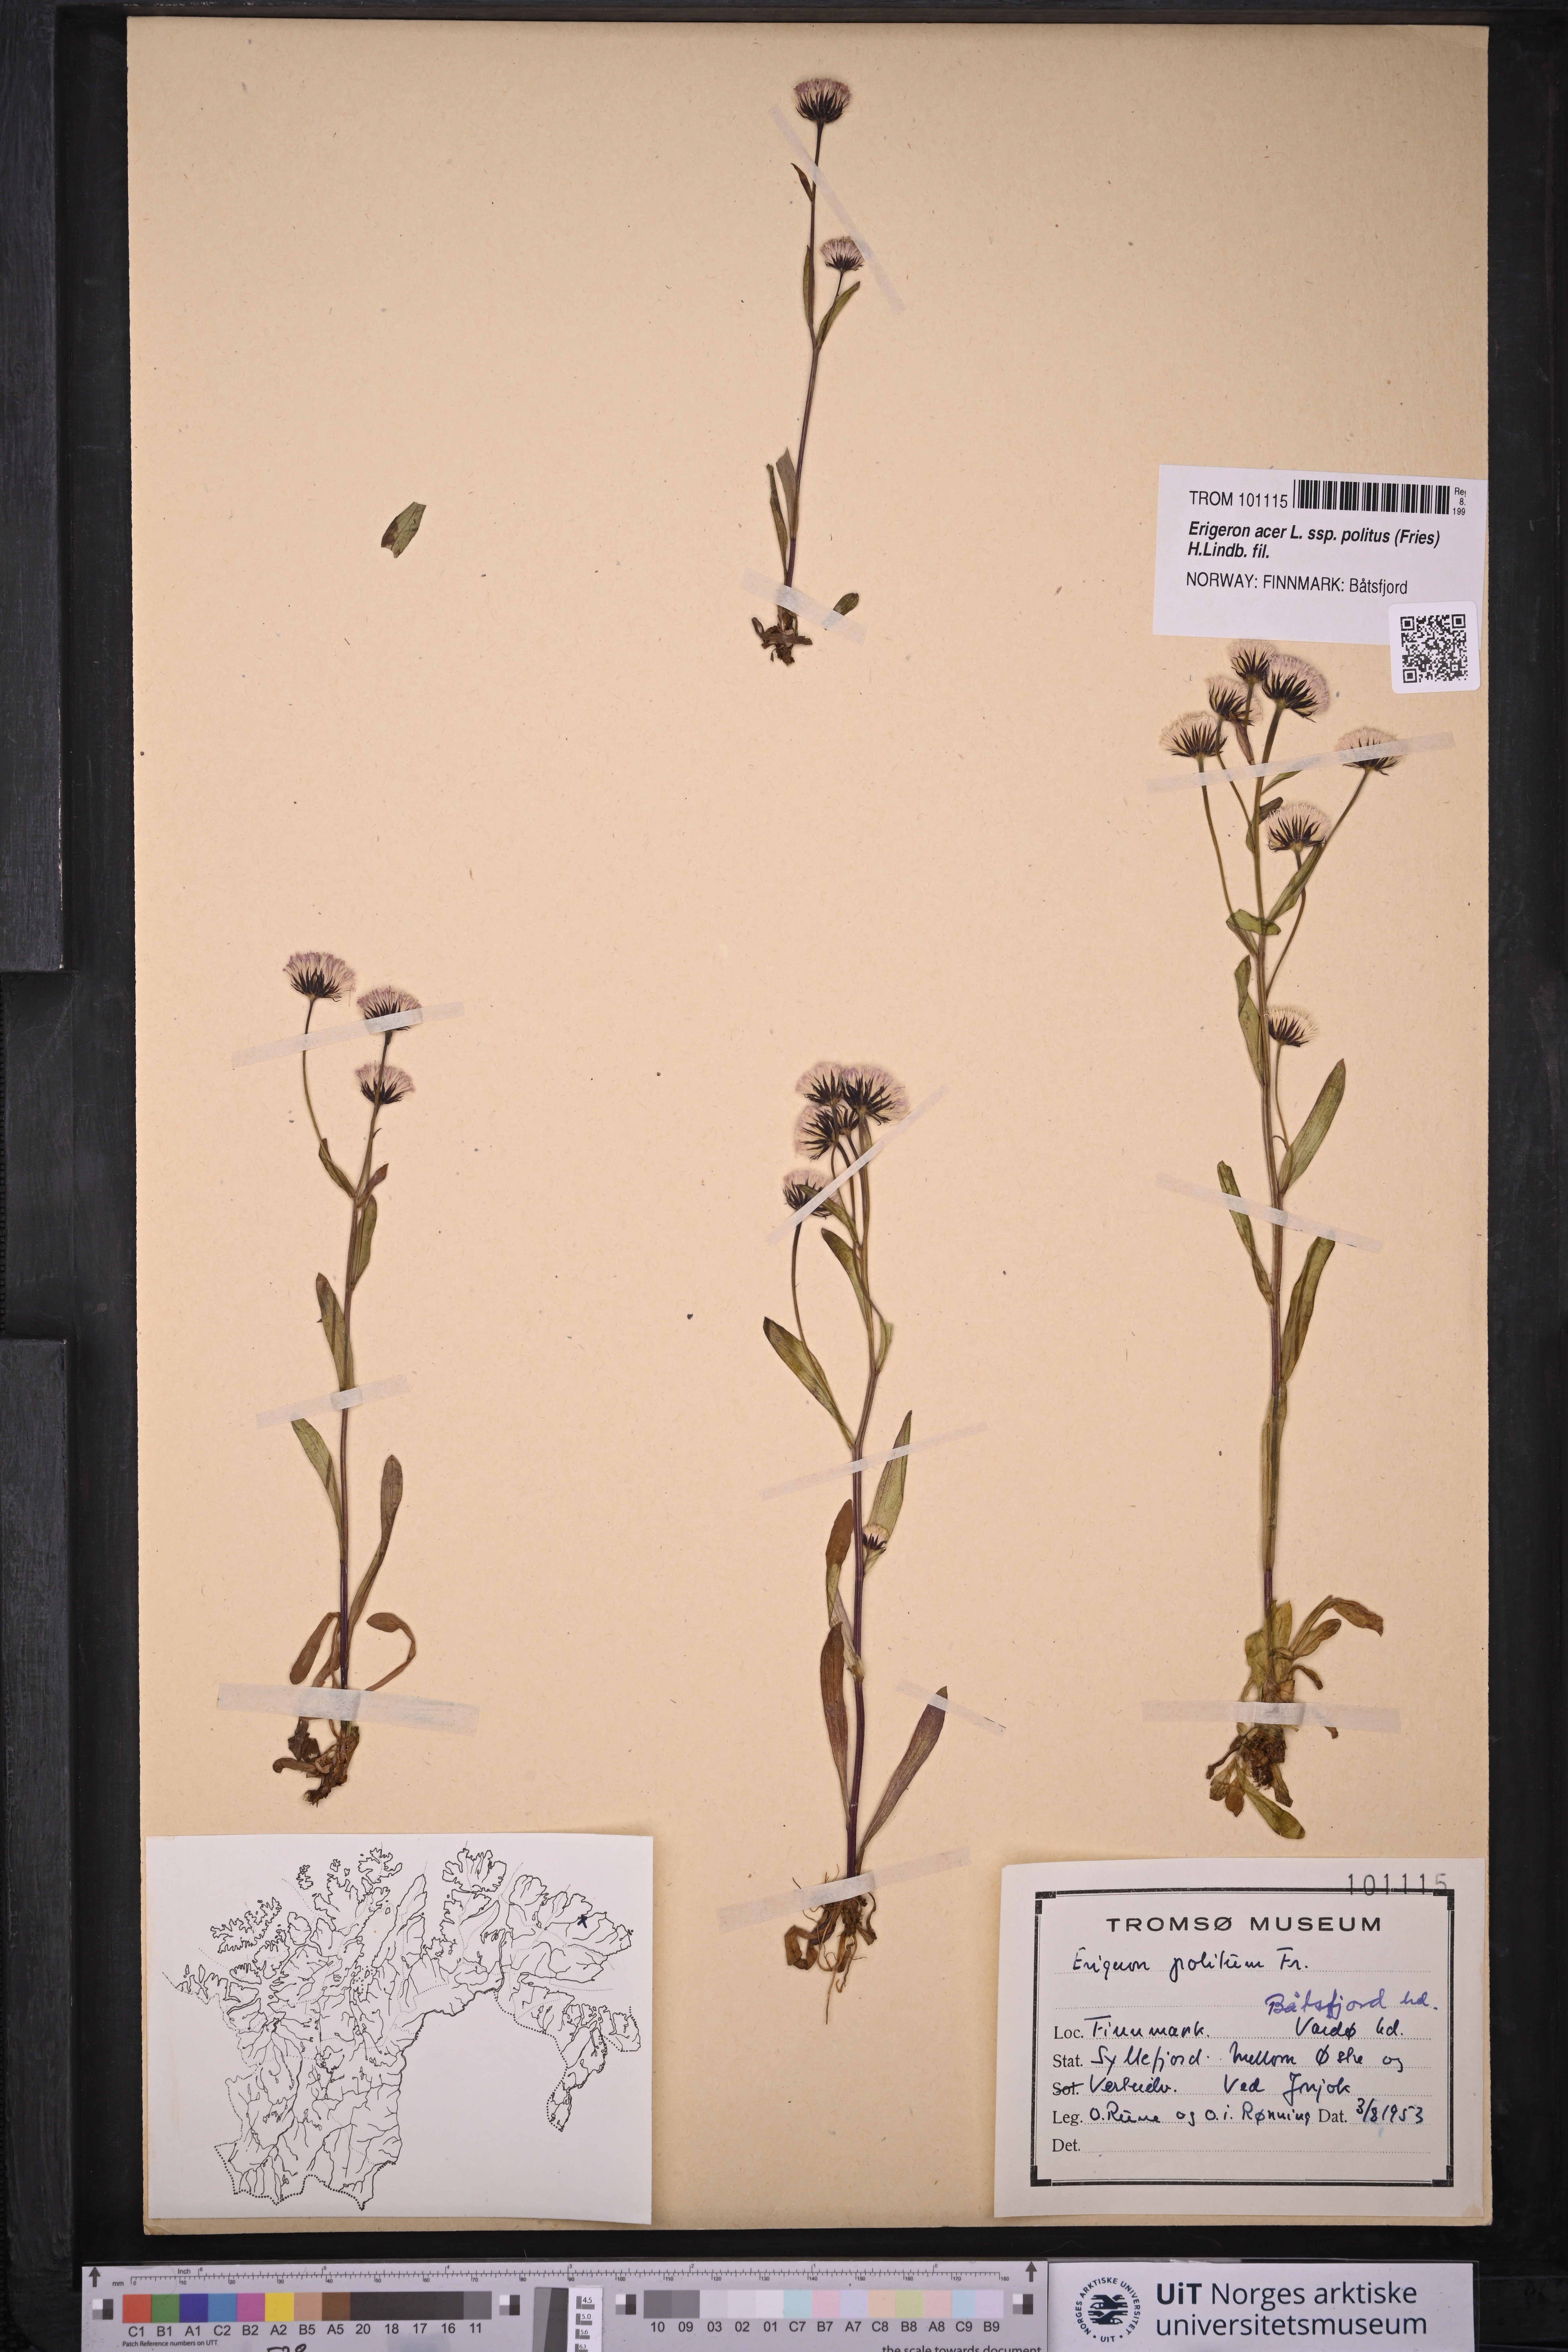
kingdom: Plantae
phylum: Tracheophyta
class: Magnoliopsida
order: Asterales
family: Asteraceae
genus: Erigeron
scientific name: Erigeron politus
